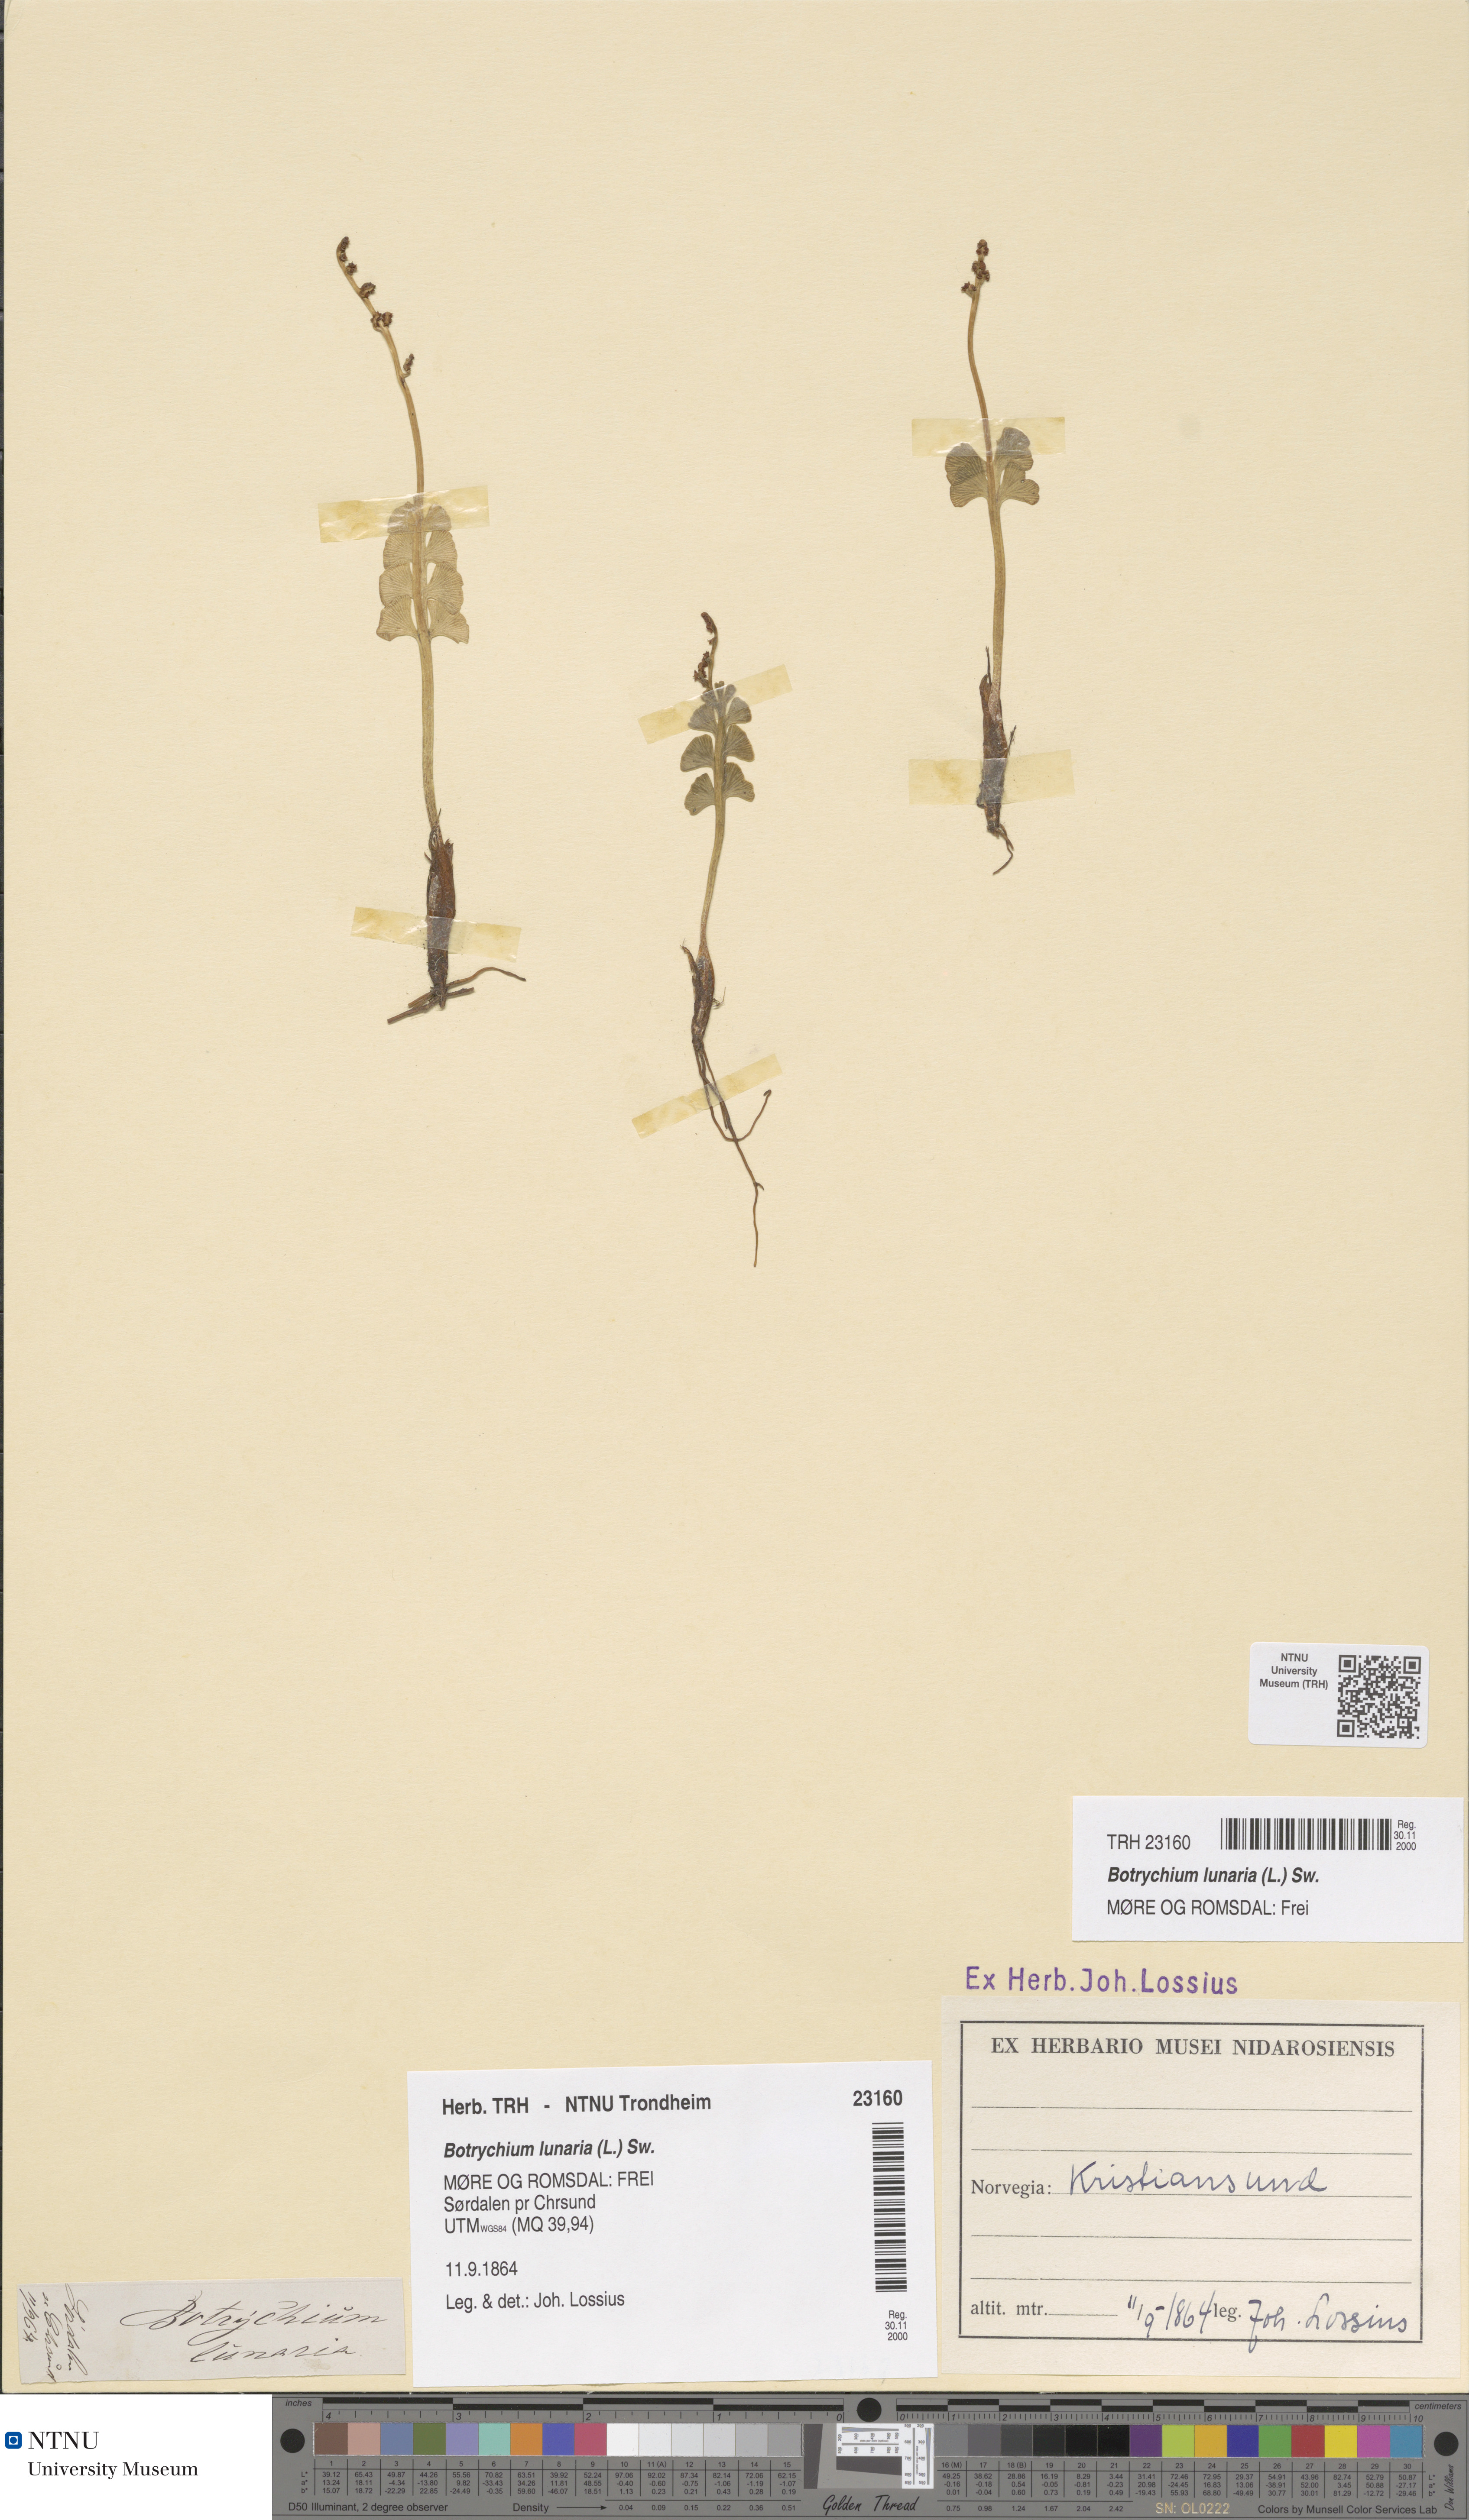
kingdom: Plantae
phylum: Tracheophyta
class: Polypodiopsida
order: Ophioglossales
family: Ophioglossaceae
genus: Botrychium
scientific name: Botrychium lunaria
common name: Moonwort
